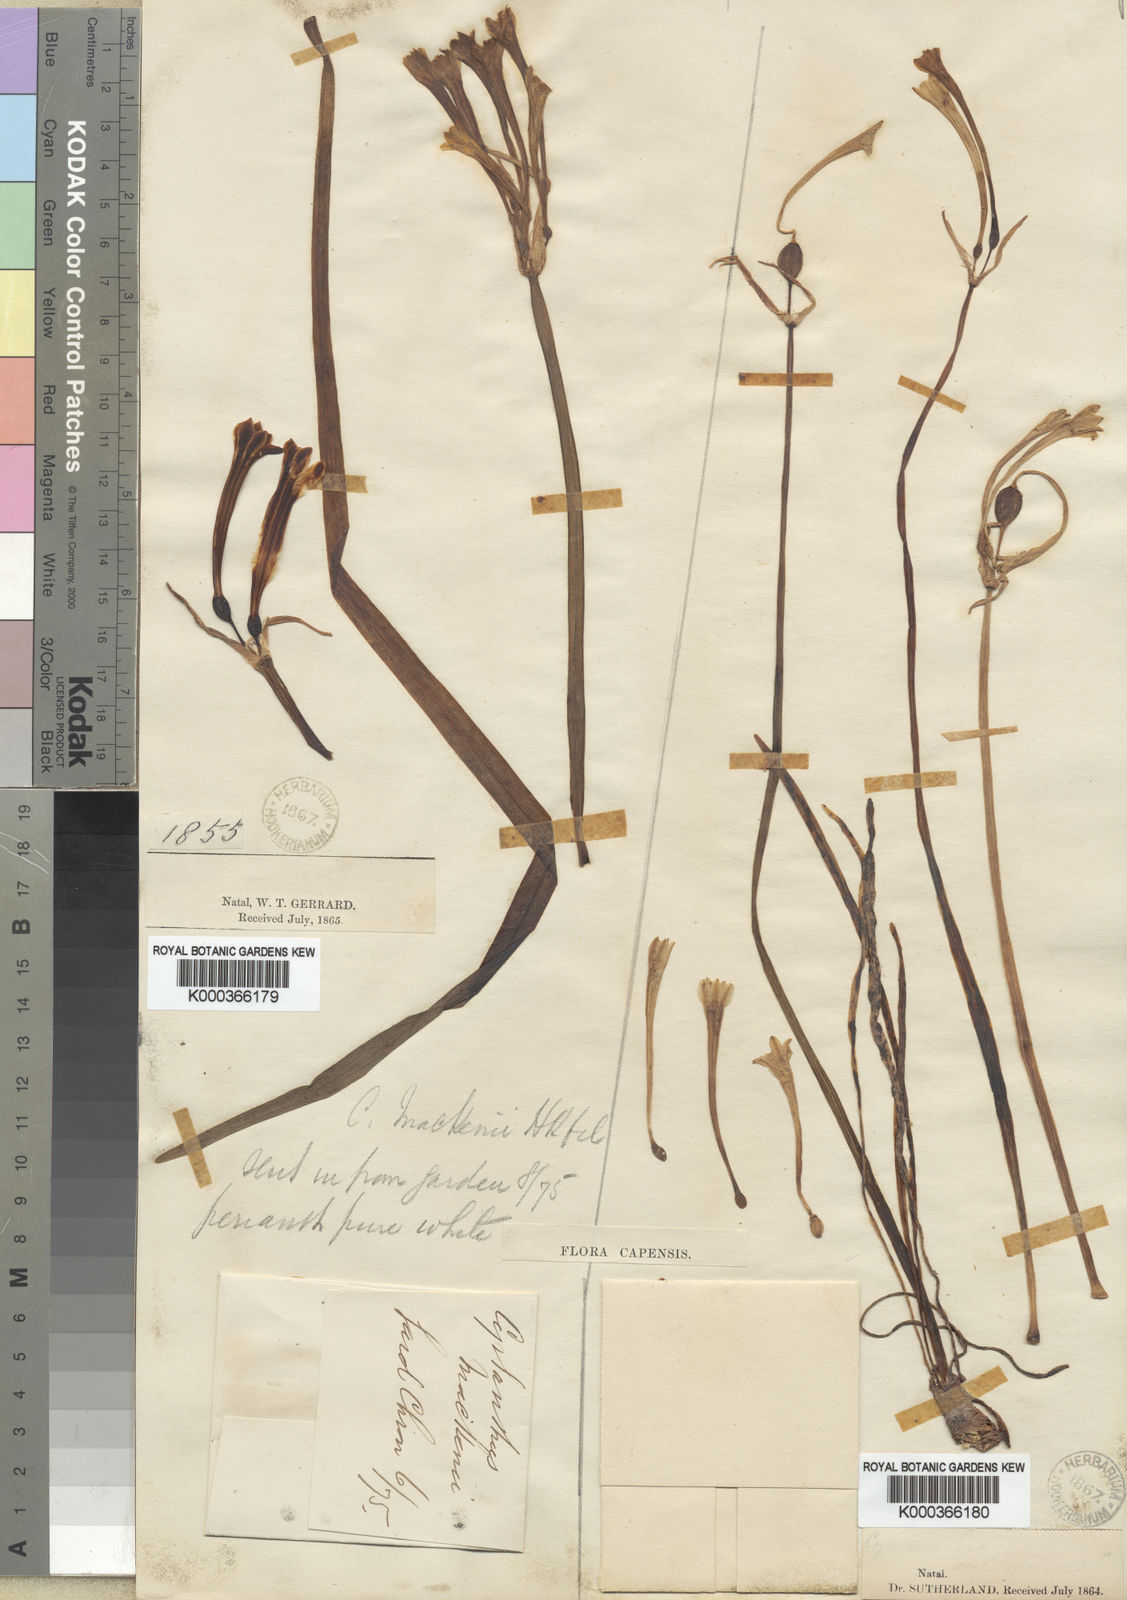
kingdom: Plantae
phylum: Tracheophyta
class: Liliopsida
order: Asparagales
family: Amaryllidaceae
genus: Cyrtanthus
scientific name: Cyrtanthus mackenii
